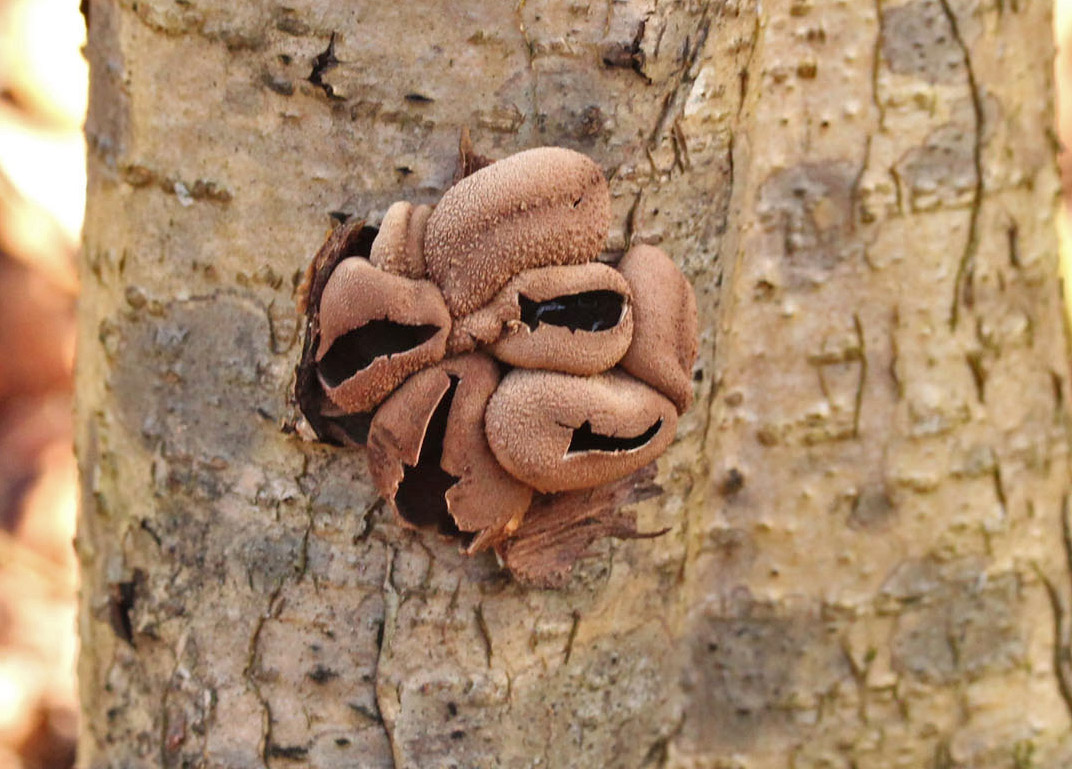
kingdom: Fungi
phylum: Ascomycota
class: Leotiomycetes
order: Helotiales
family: Cenangiaceae
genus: Encoelia
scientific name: Encoelia furfuracea
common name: hassel-læderskive
